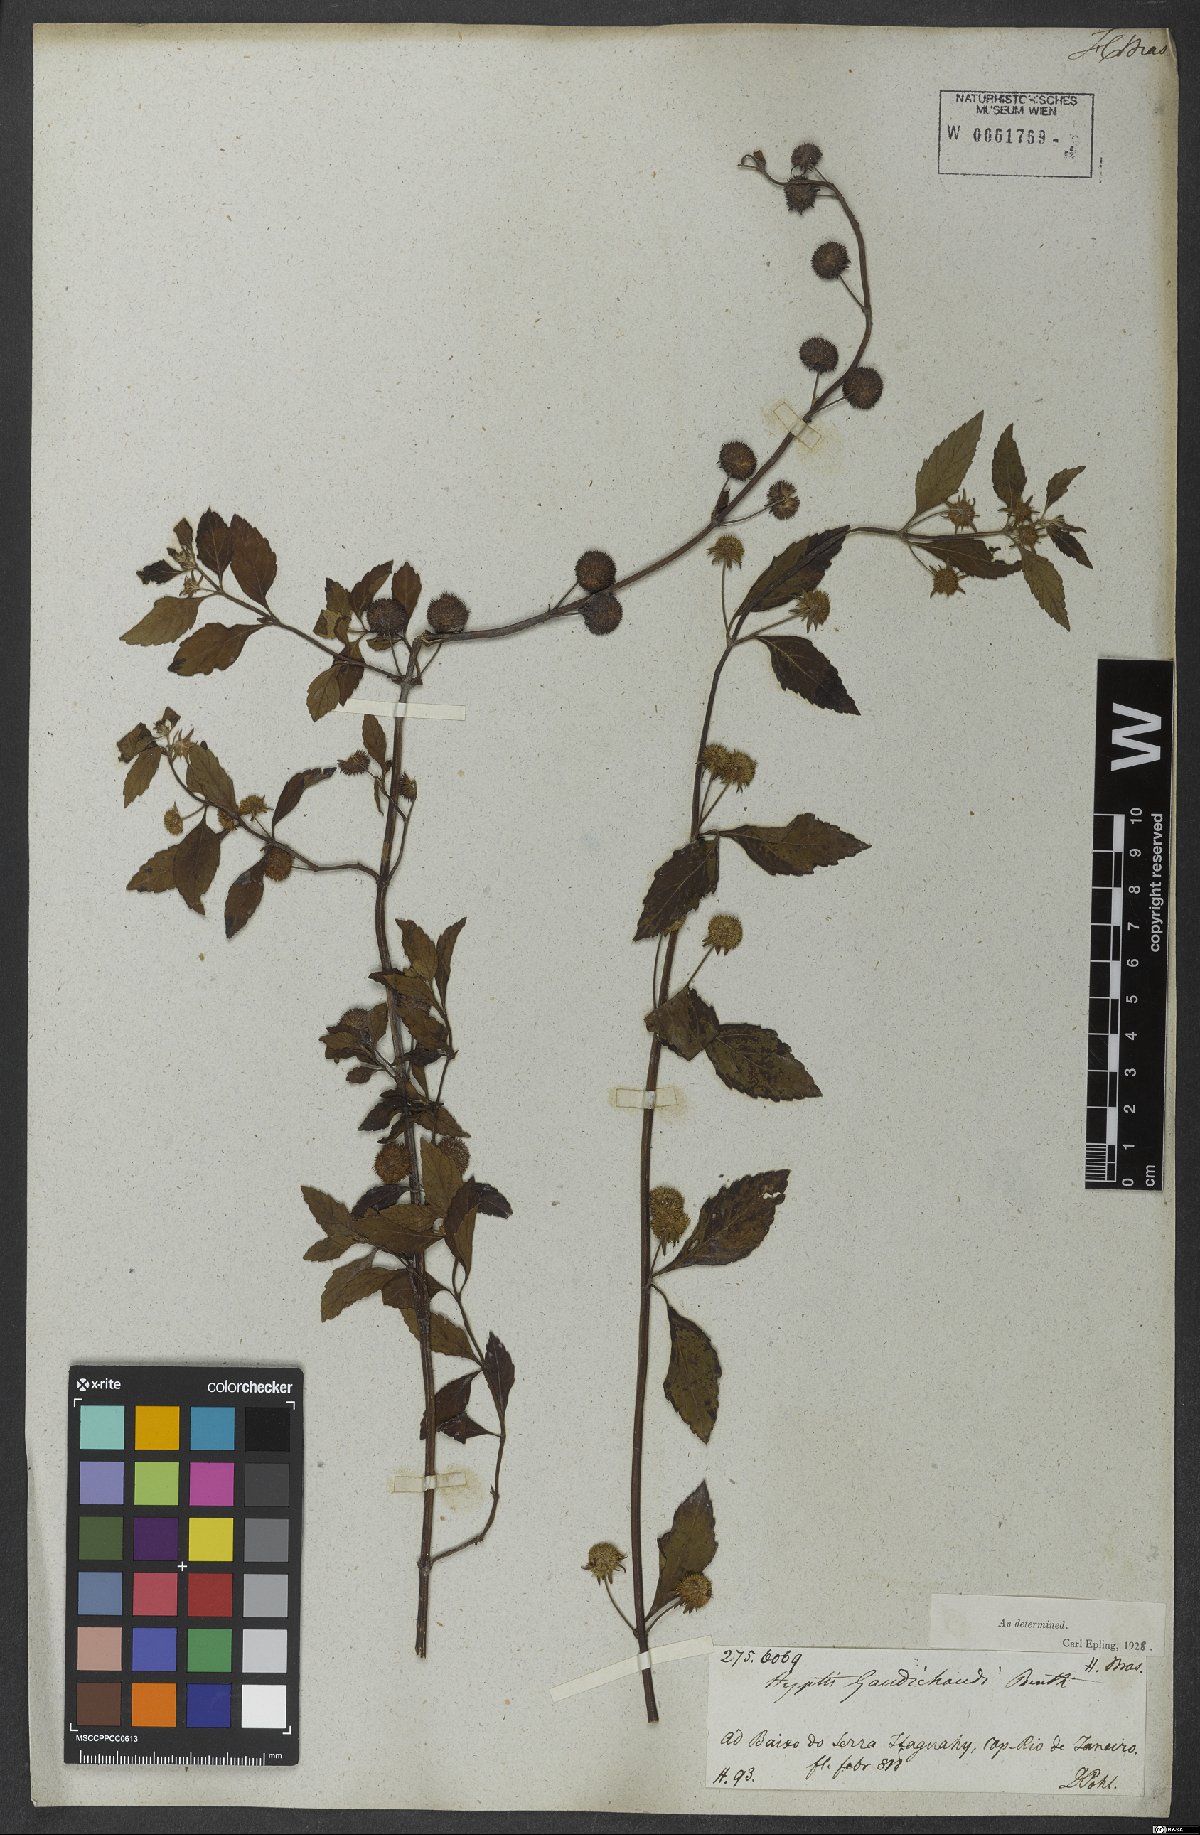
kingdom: Plantae
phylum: Tracheophyta
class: Magnoliopsida
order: Lamiales
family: Lamiaceae
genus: Hyptis
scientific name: Hyptis inodora
